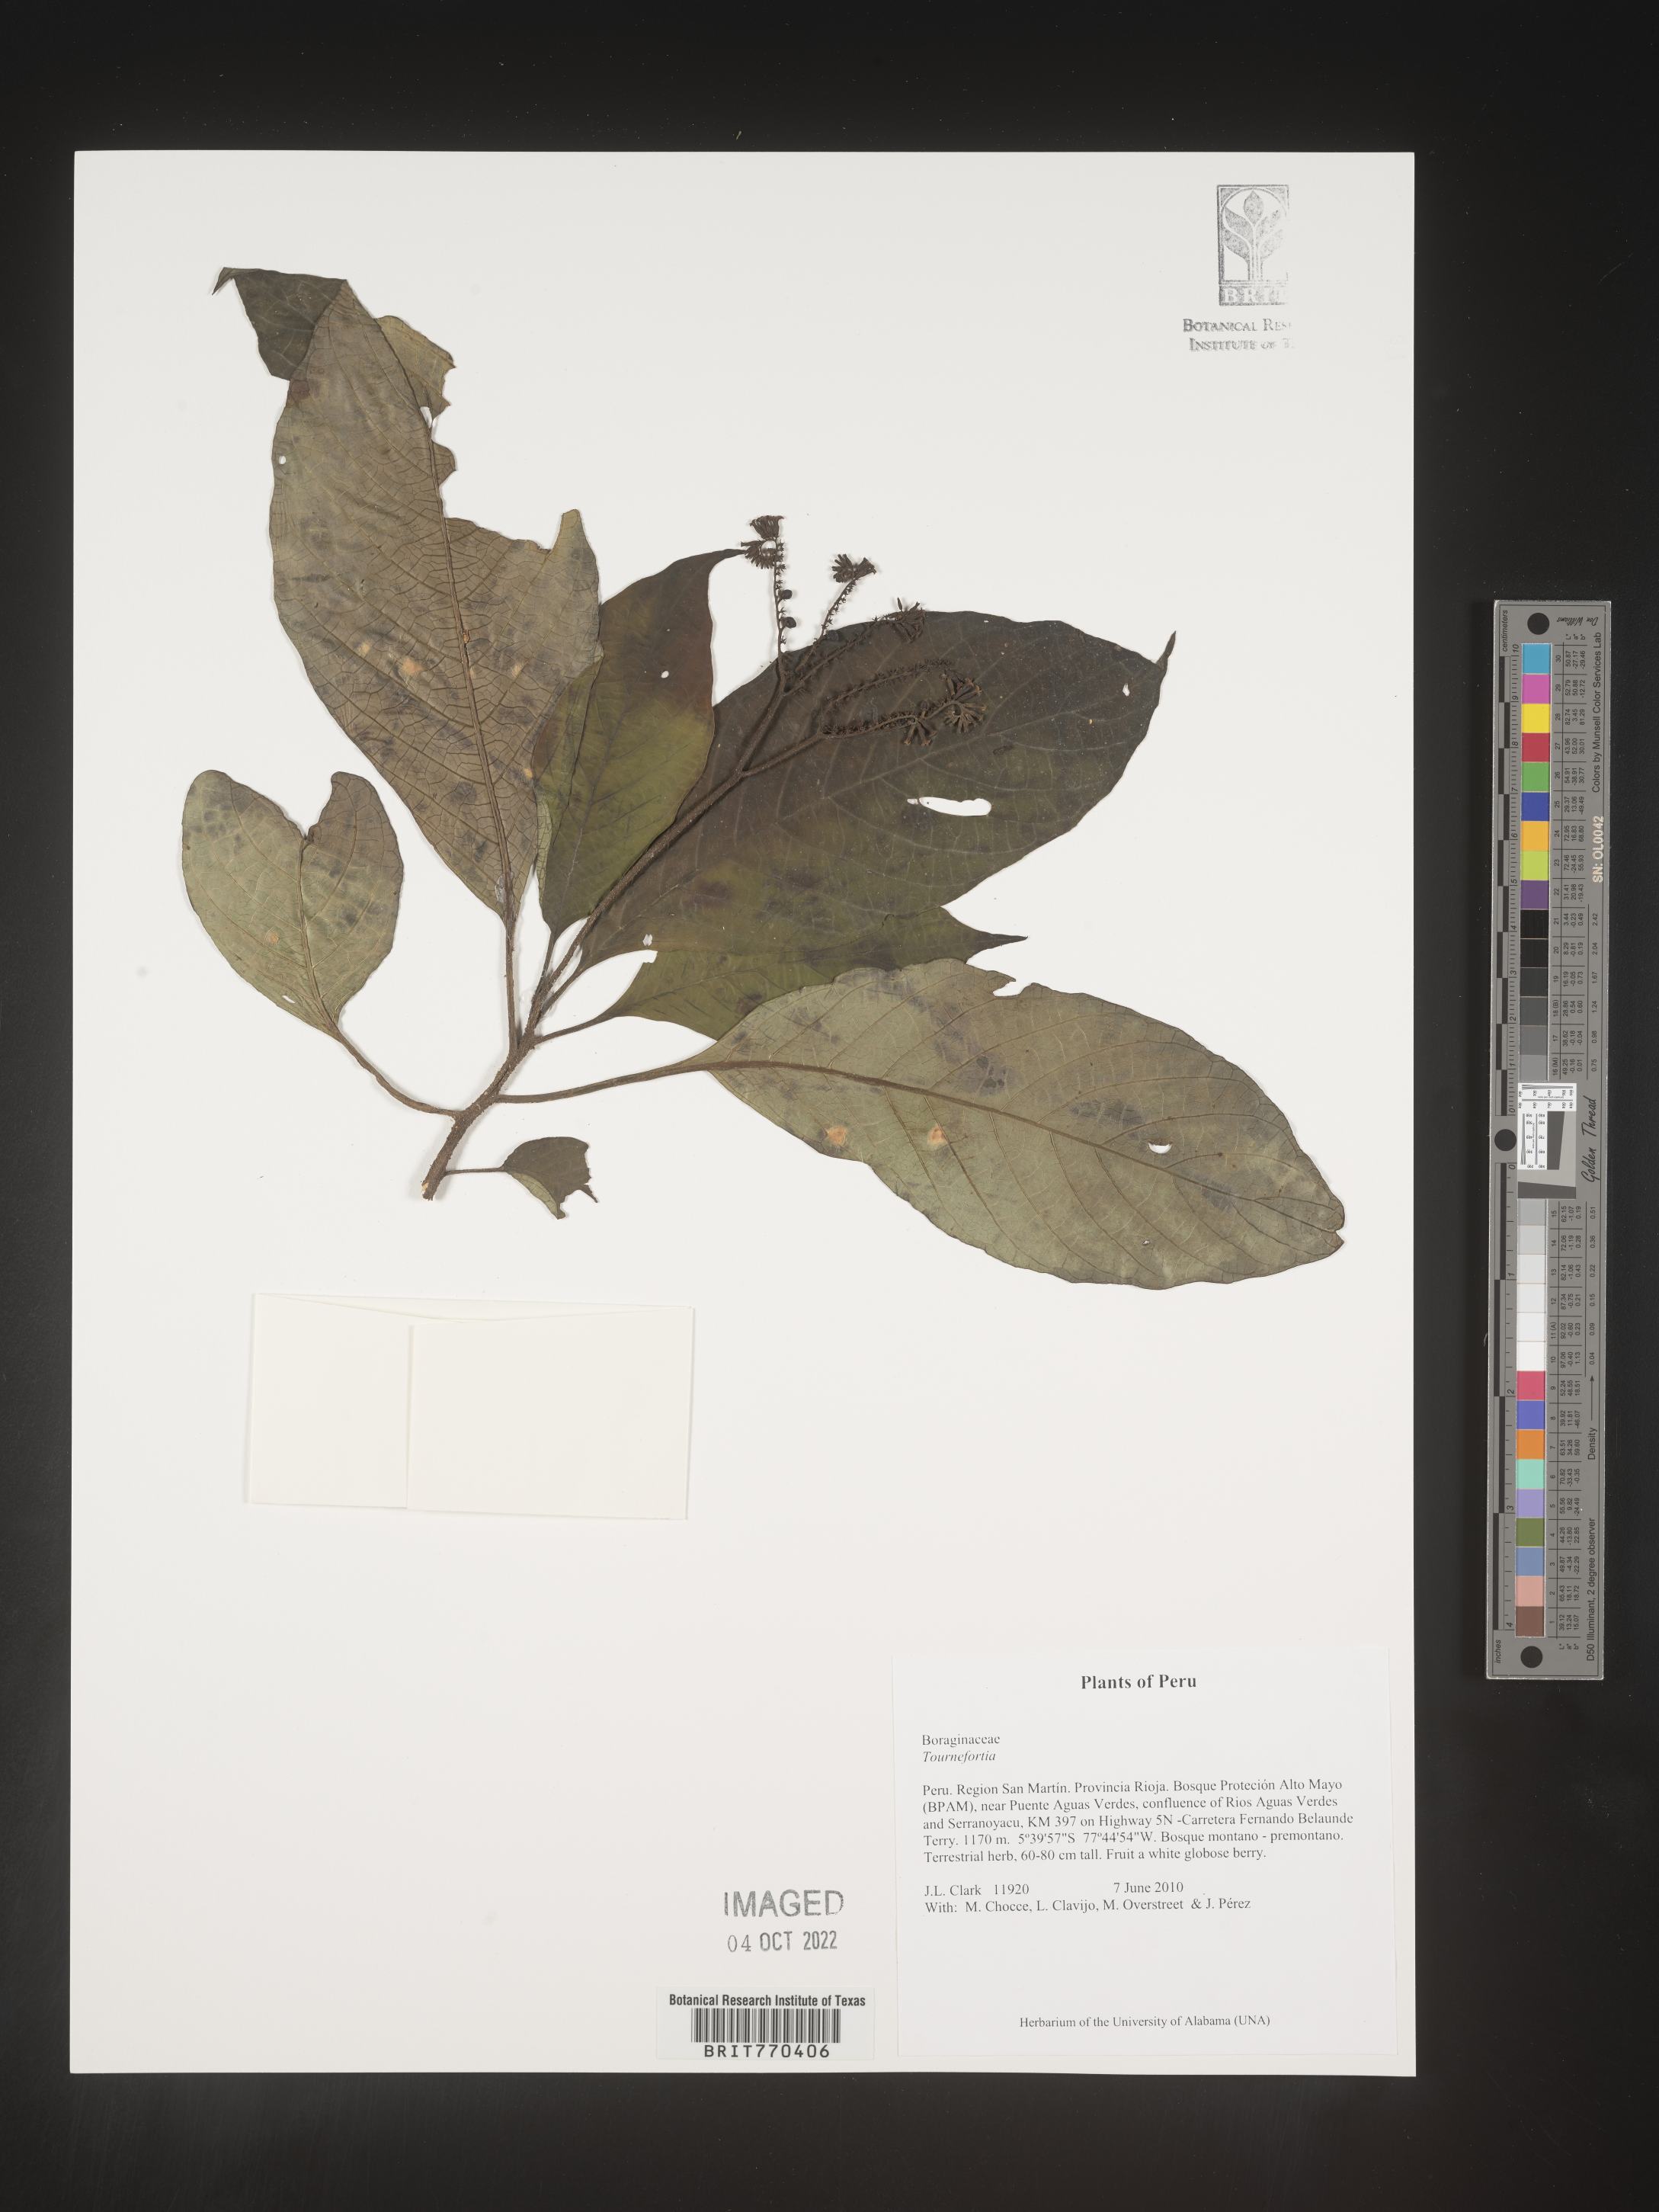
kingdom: Plantae
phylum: Tracheophyta
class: Magnoliopsida
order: Boraginales
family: Heliotropiaceae
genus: Tournefortia
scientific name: Tournefortia
